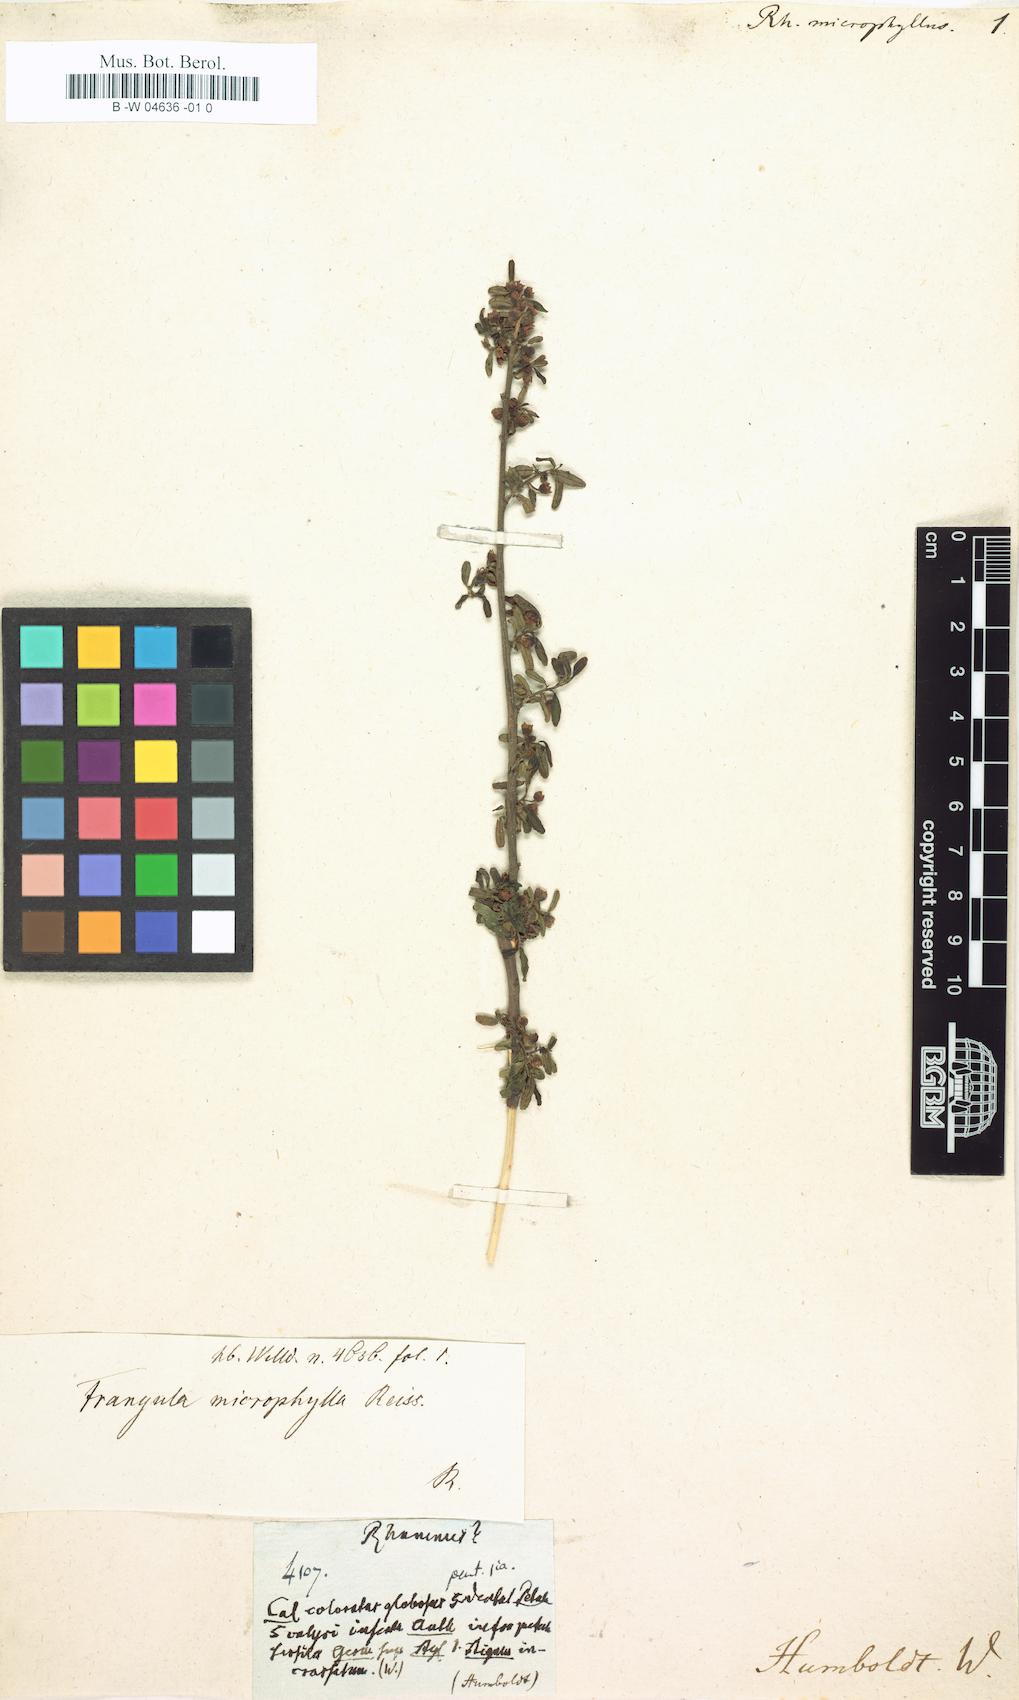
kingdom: Plantae
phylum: Tracheophyta
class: Magnoliopsida
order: Rosales
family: Rhamnaceae
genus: Rhamnus
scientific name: Rhamnus microphylla
